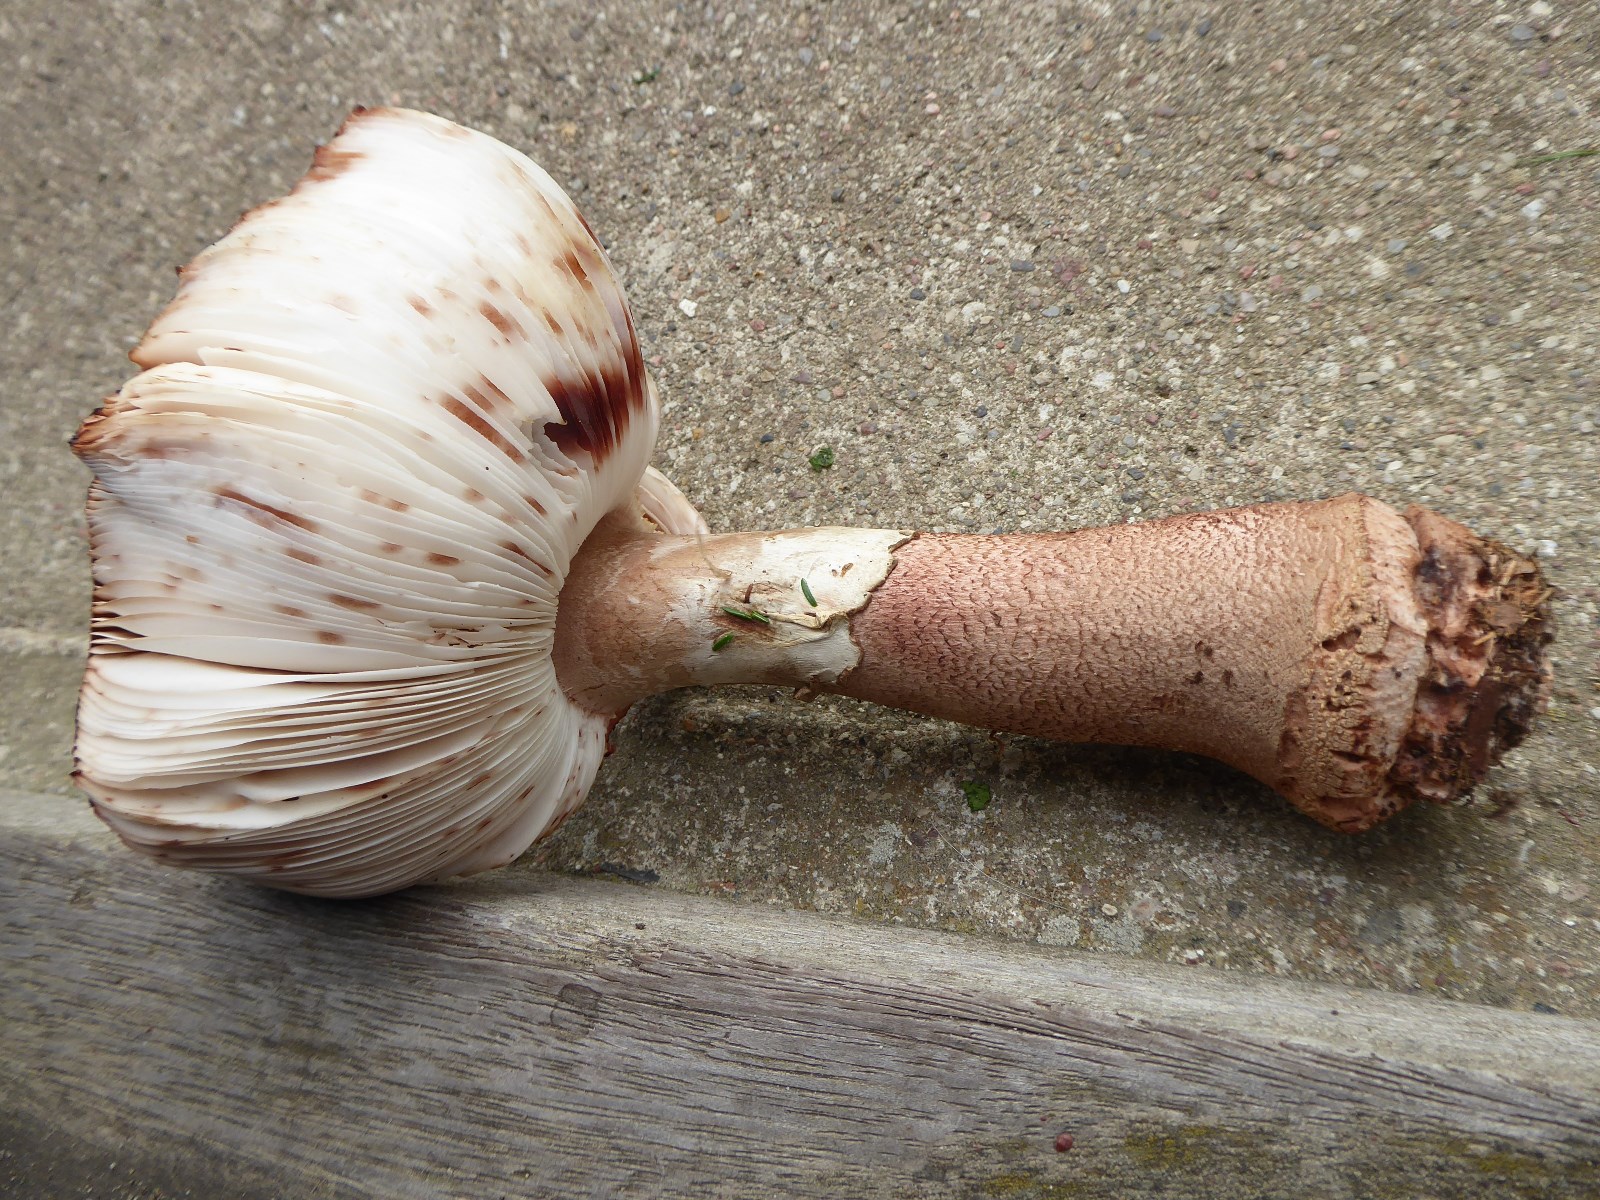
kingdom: Fungi
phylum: Basidiomycota
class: Agaricomycetes
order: Agaricales
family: Amanitaceae
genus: Amanita
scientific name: Amanita rubescens
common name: rødmende fluesvamp
